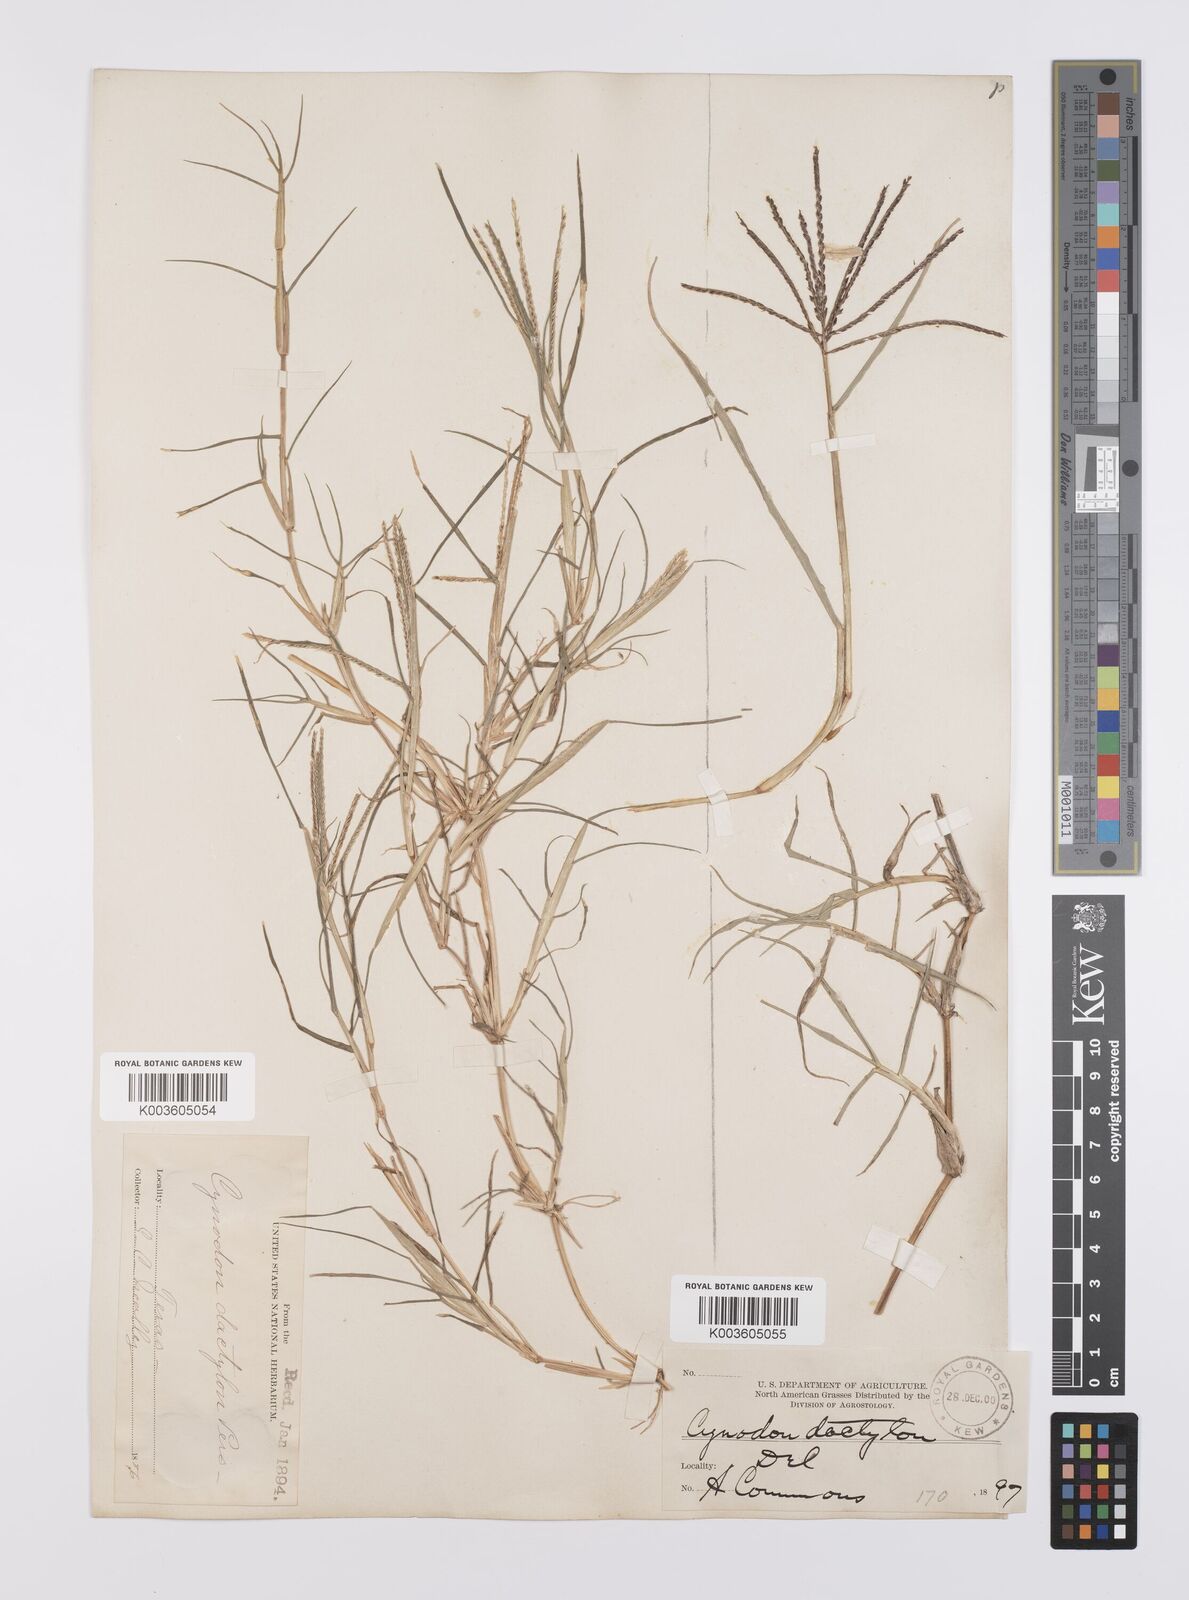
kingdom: Plantae
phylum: Tracheophyta
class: Liliopsida
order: Poales
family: Poaceae
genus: Cynodon
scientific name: Cynodon dactylon
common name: Bermuda grass
